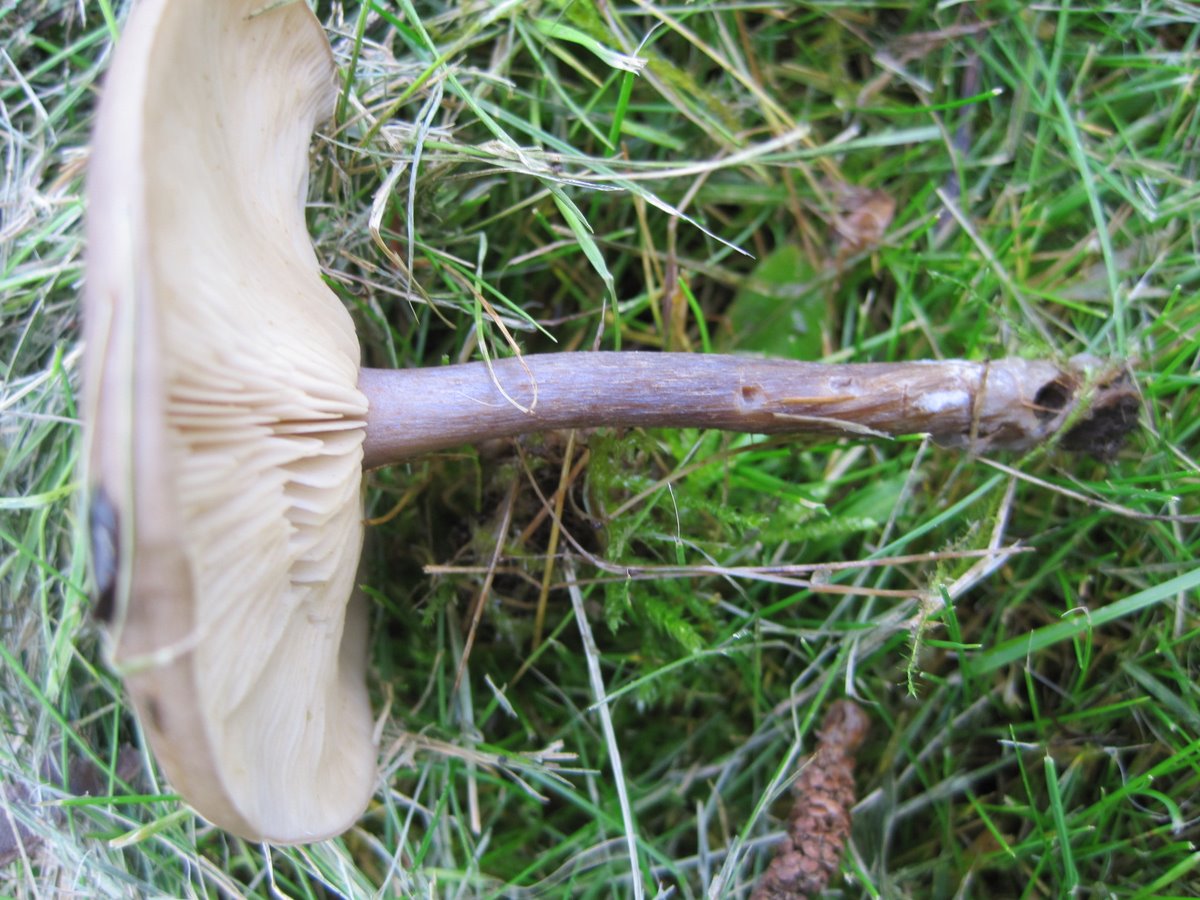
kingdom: Fungi
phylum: Basidiomycota
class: Agaricomycetes
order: Agaricales
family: Tricholomataceae
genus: Melanoleuca
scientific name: Melanoleuca exscissa
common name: gusten munkehat
